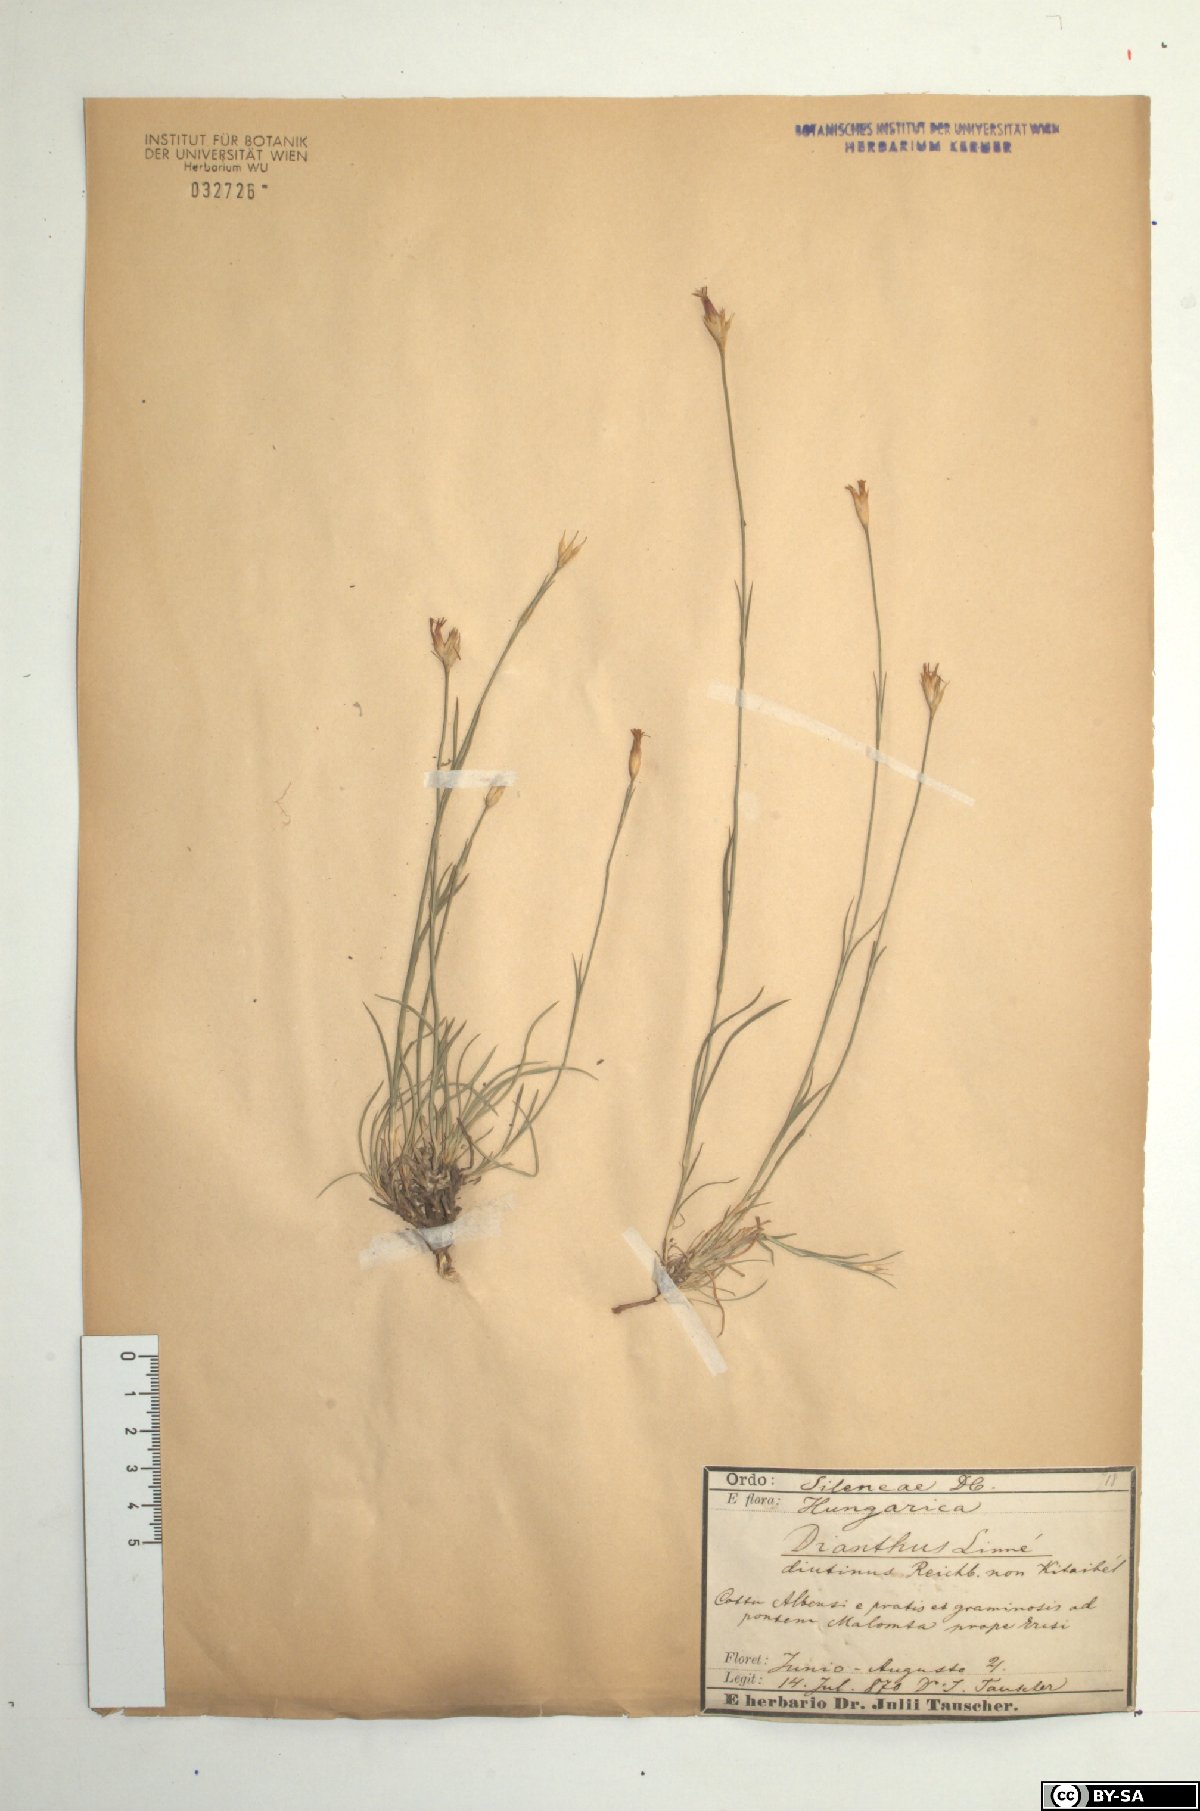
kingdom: Plantae
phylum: Tracheophyta
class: Magnoliopsida
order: Caryophyllales
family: Caryophyllaceae
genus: Dianthus
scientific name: Dianthus pontederae
